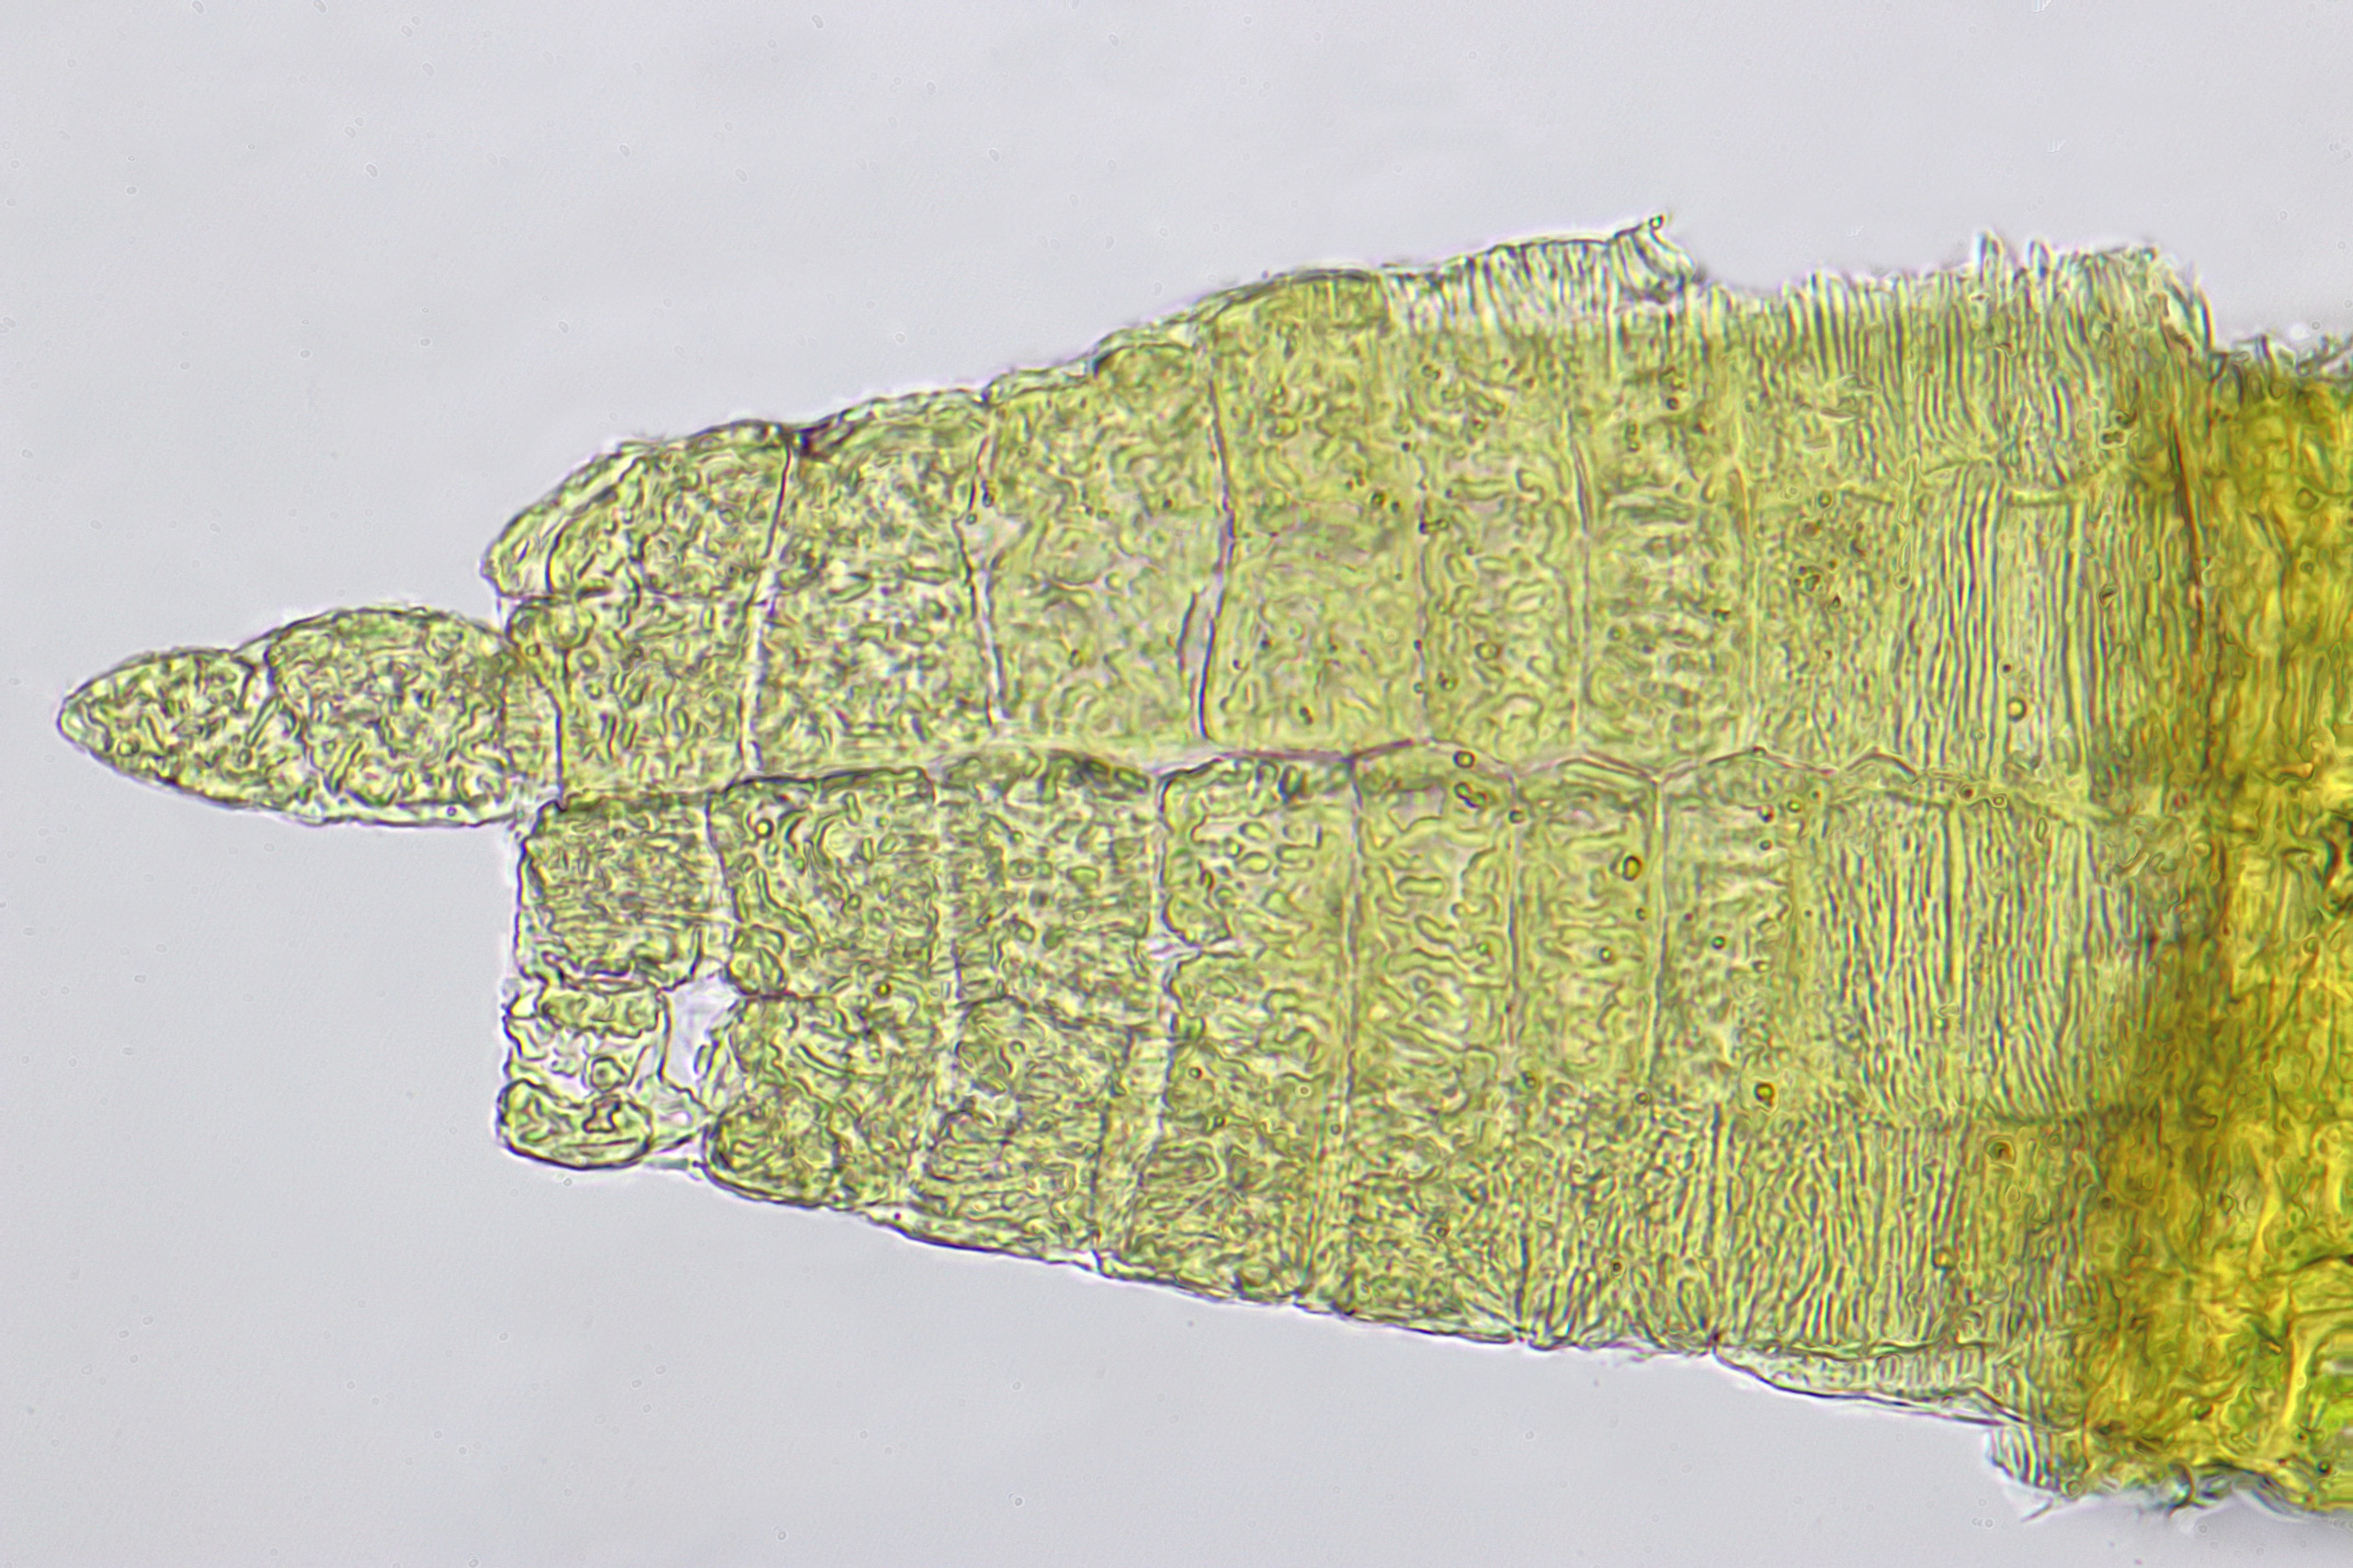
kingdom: Plantae
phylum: Bryophyta
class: Bryopsida
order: Orthotrichales
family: Orthotrichaceae
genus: Lewinskya
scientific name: Lewinskya fastigiata
